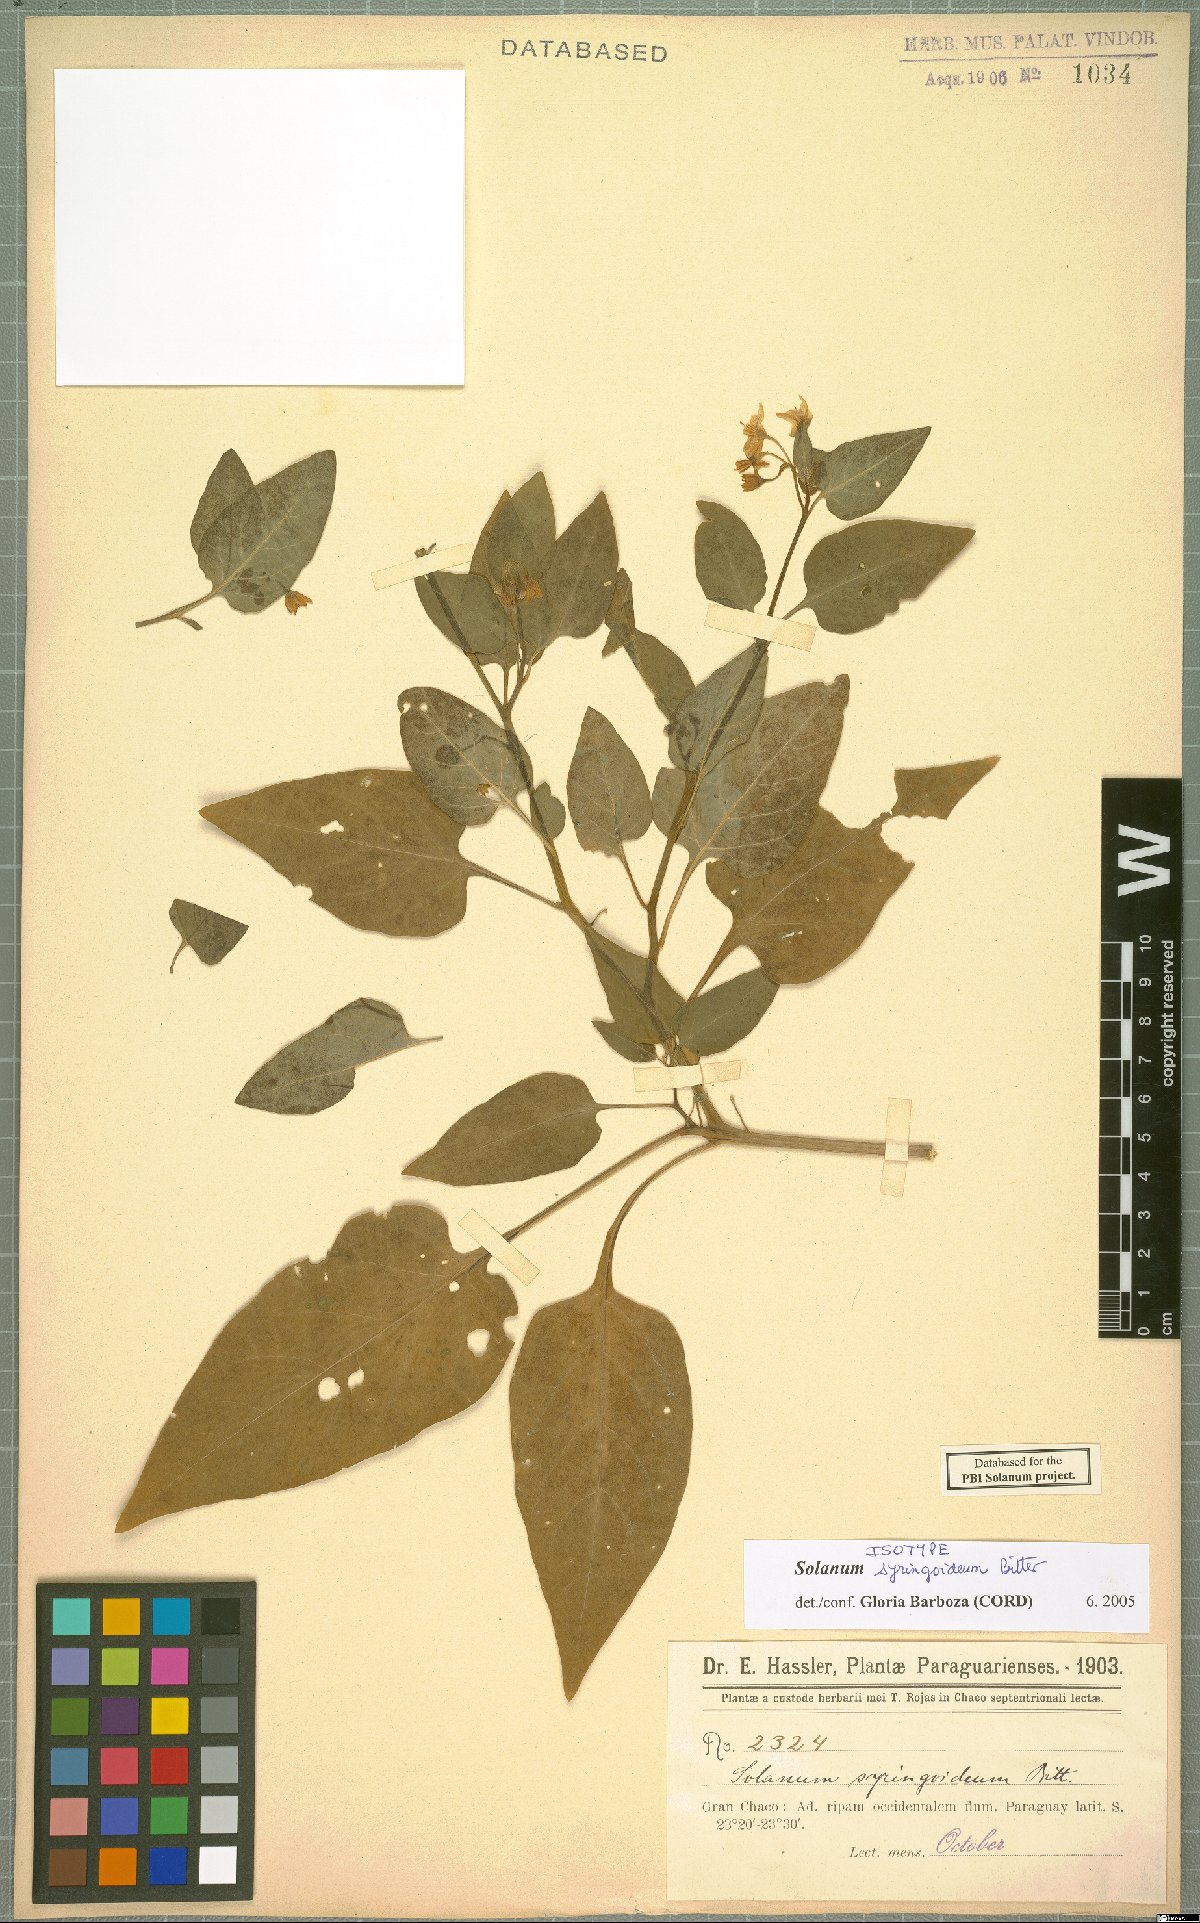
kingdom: Plantae
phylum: Tracheophyta
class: Magnoliopsida
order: Solanales
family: Solanaceae
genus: Solanum
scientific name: Solanum pilcomayense
